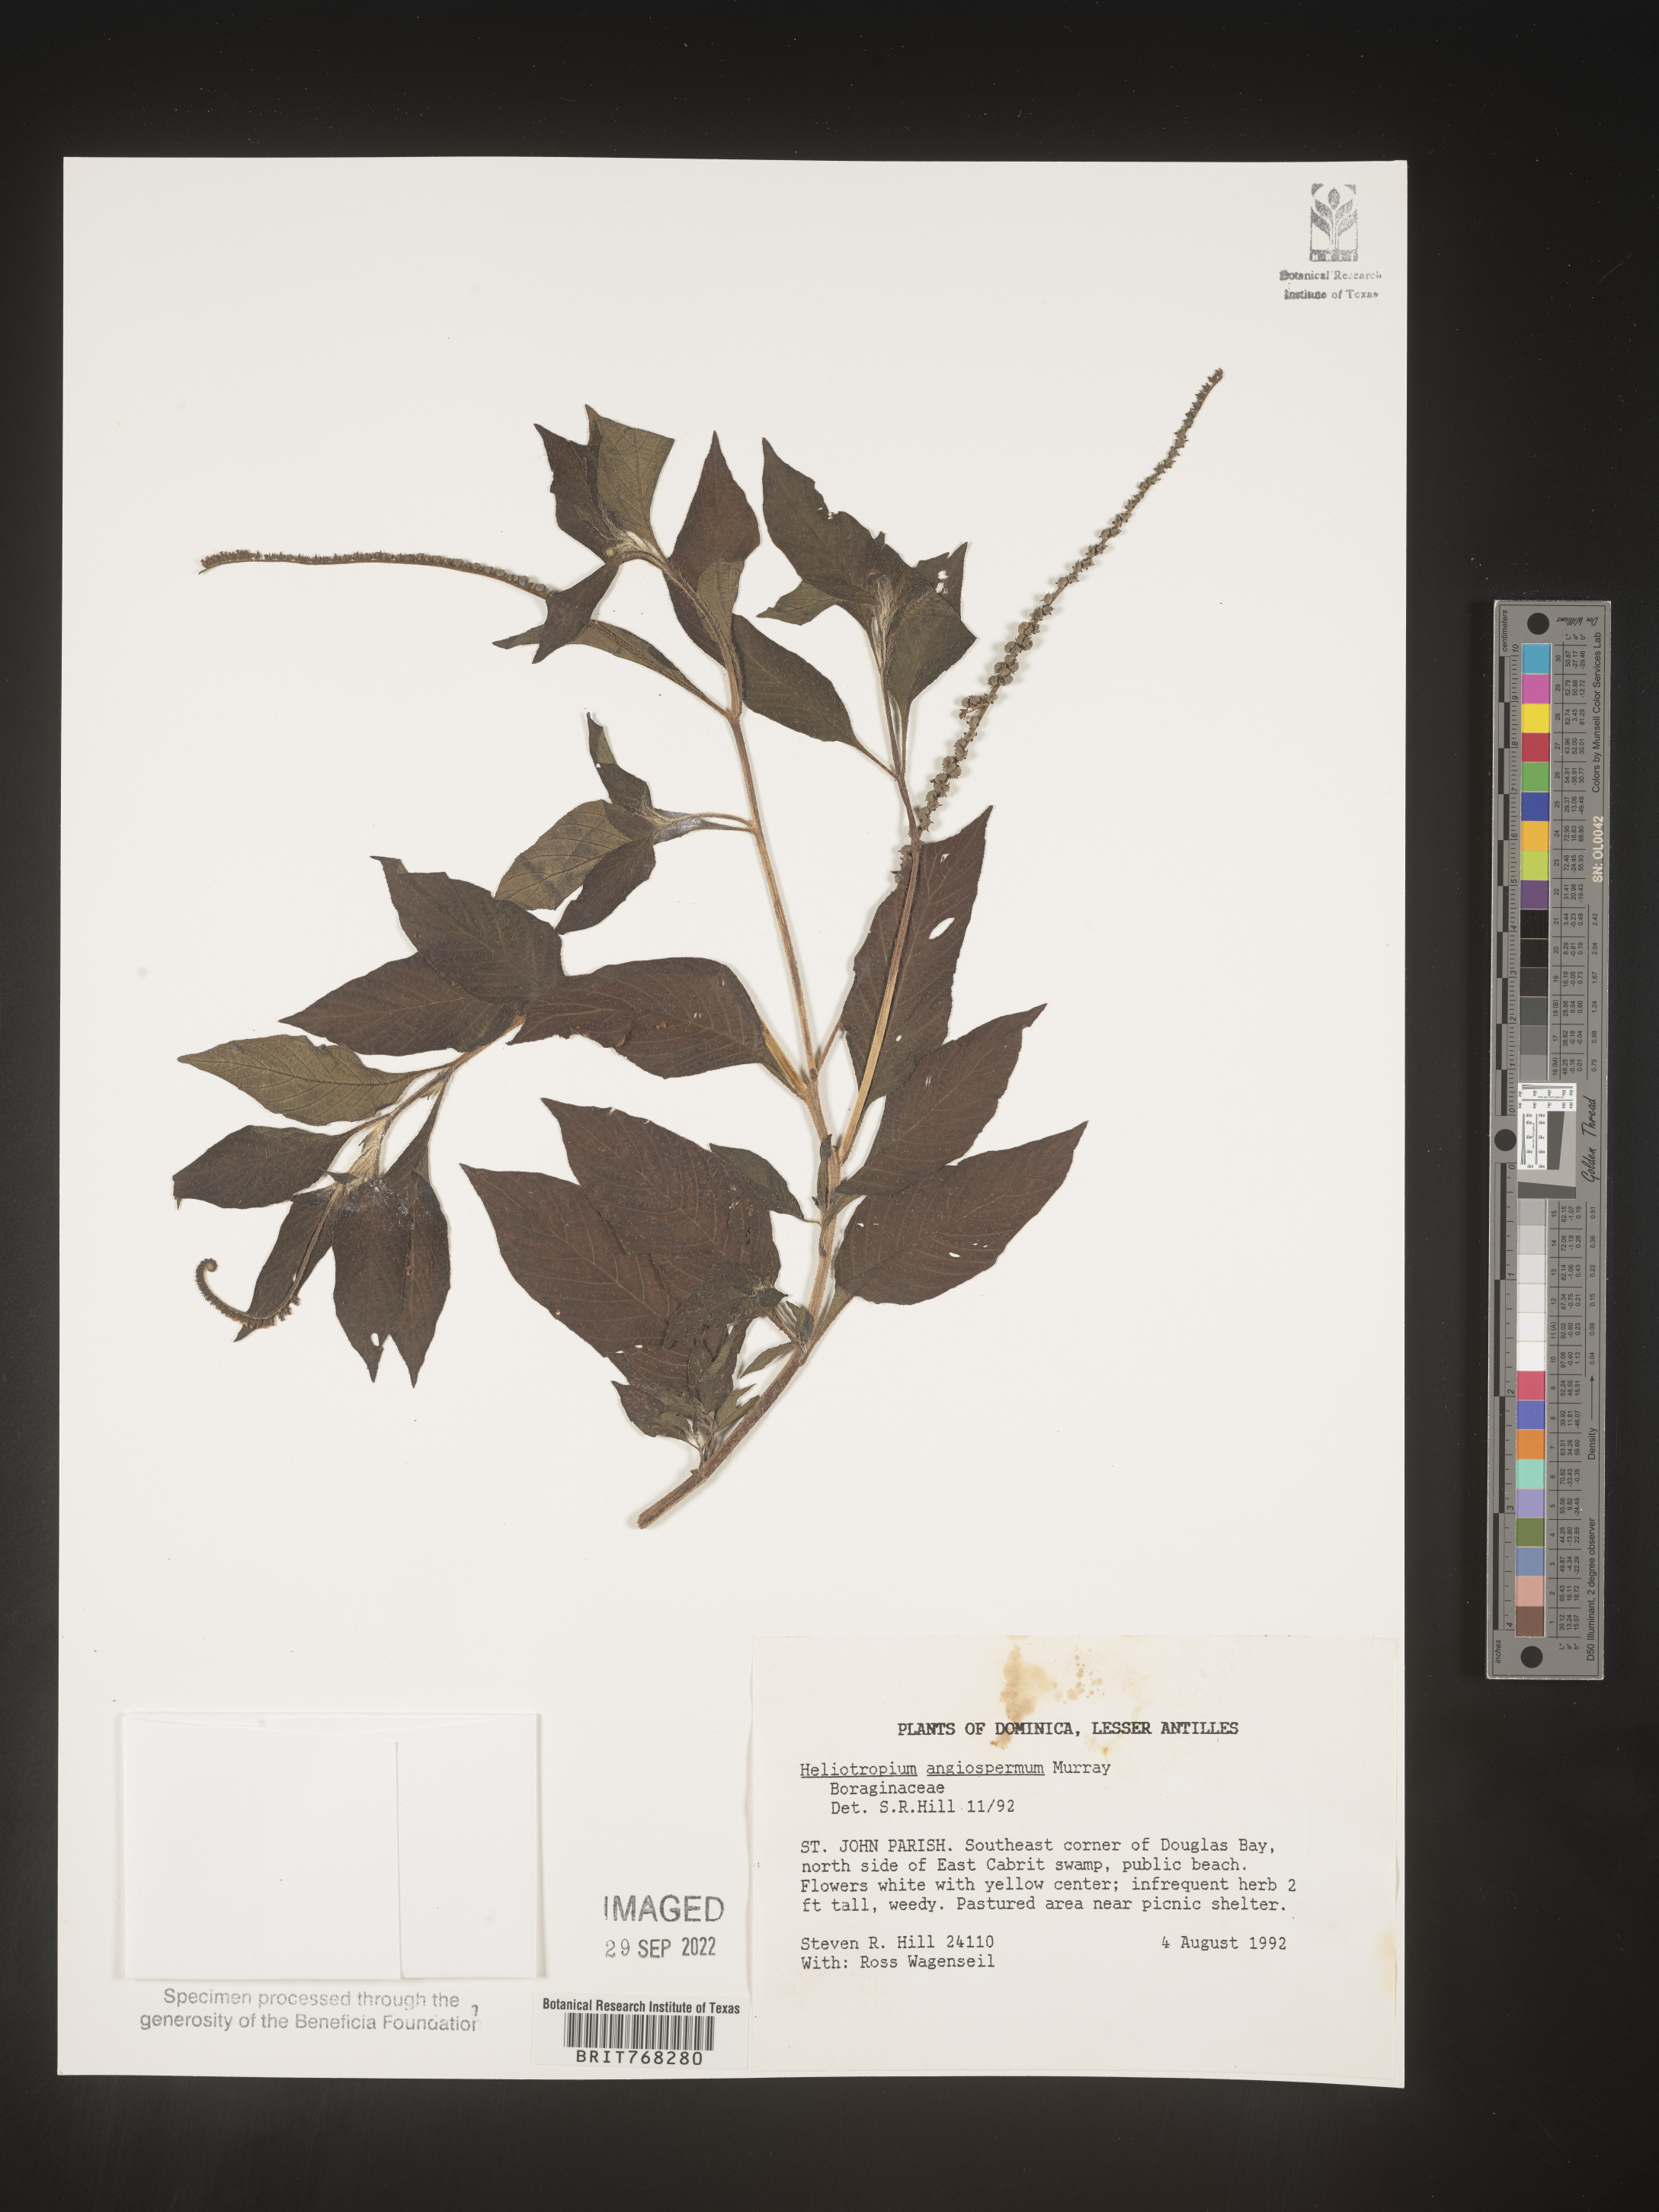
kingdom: Plantae
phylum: Tracheophyta
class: Magnoliopsida
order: Boraginales
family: Heliotropiaceae
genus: Heliotropium
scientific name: Heliotropium
